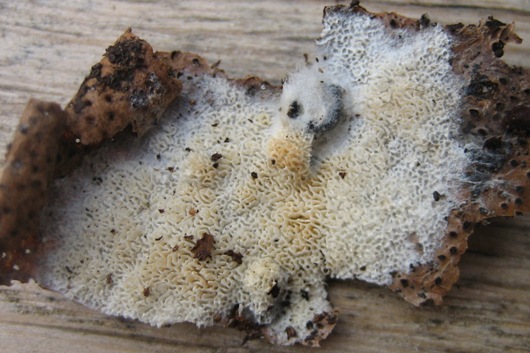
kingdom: Fungi
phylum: Basidiomycota
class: Agaricomycetes
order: Hymenochaetales
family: Schizoporaceae
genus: Schizopora
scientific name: Schizopora paradoxa
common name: hvid tandsvamp
